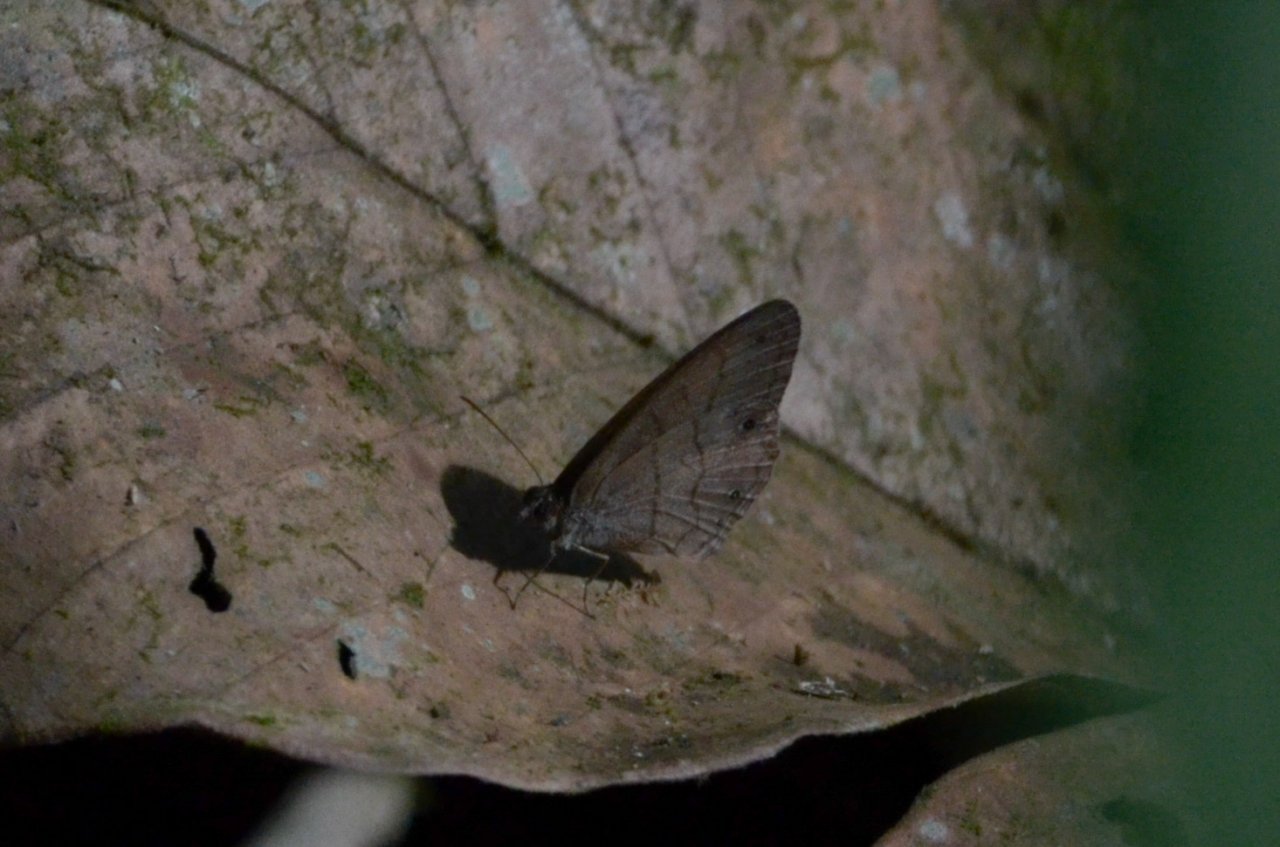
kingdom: Animalia
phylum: Arthropoda
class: Insecta
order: Lepidoptera
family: Nymphalidae
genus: Hermeuptychia
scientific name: Hermeuptychia hermes
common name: Hermes Satyr
